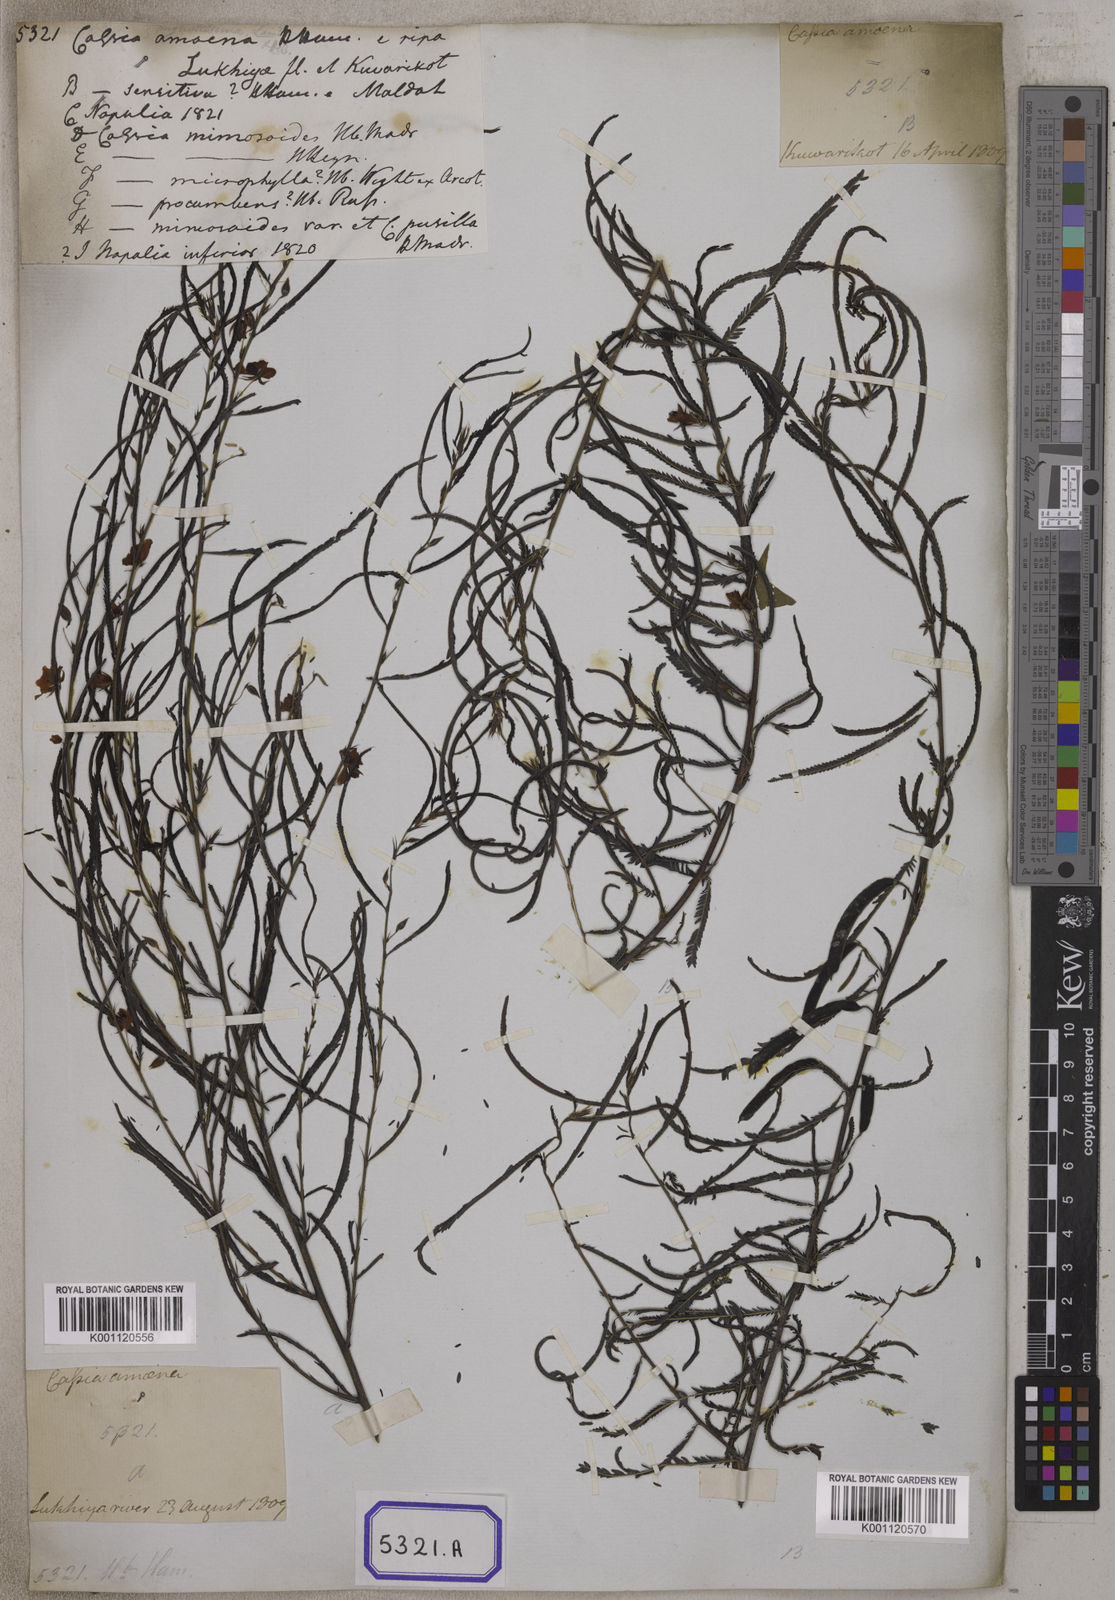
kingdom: Plantae
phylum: Tracheophyta
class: Magnoliopsida
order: Fabales
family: Fabaceae
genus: Chamaecrista
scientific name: Chamaecrista mimosoides
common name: Fish-bone cassia
